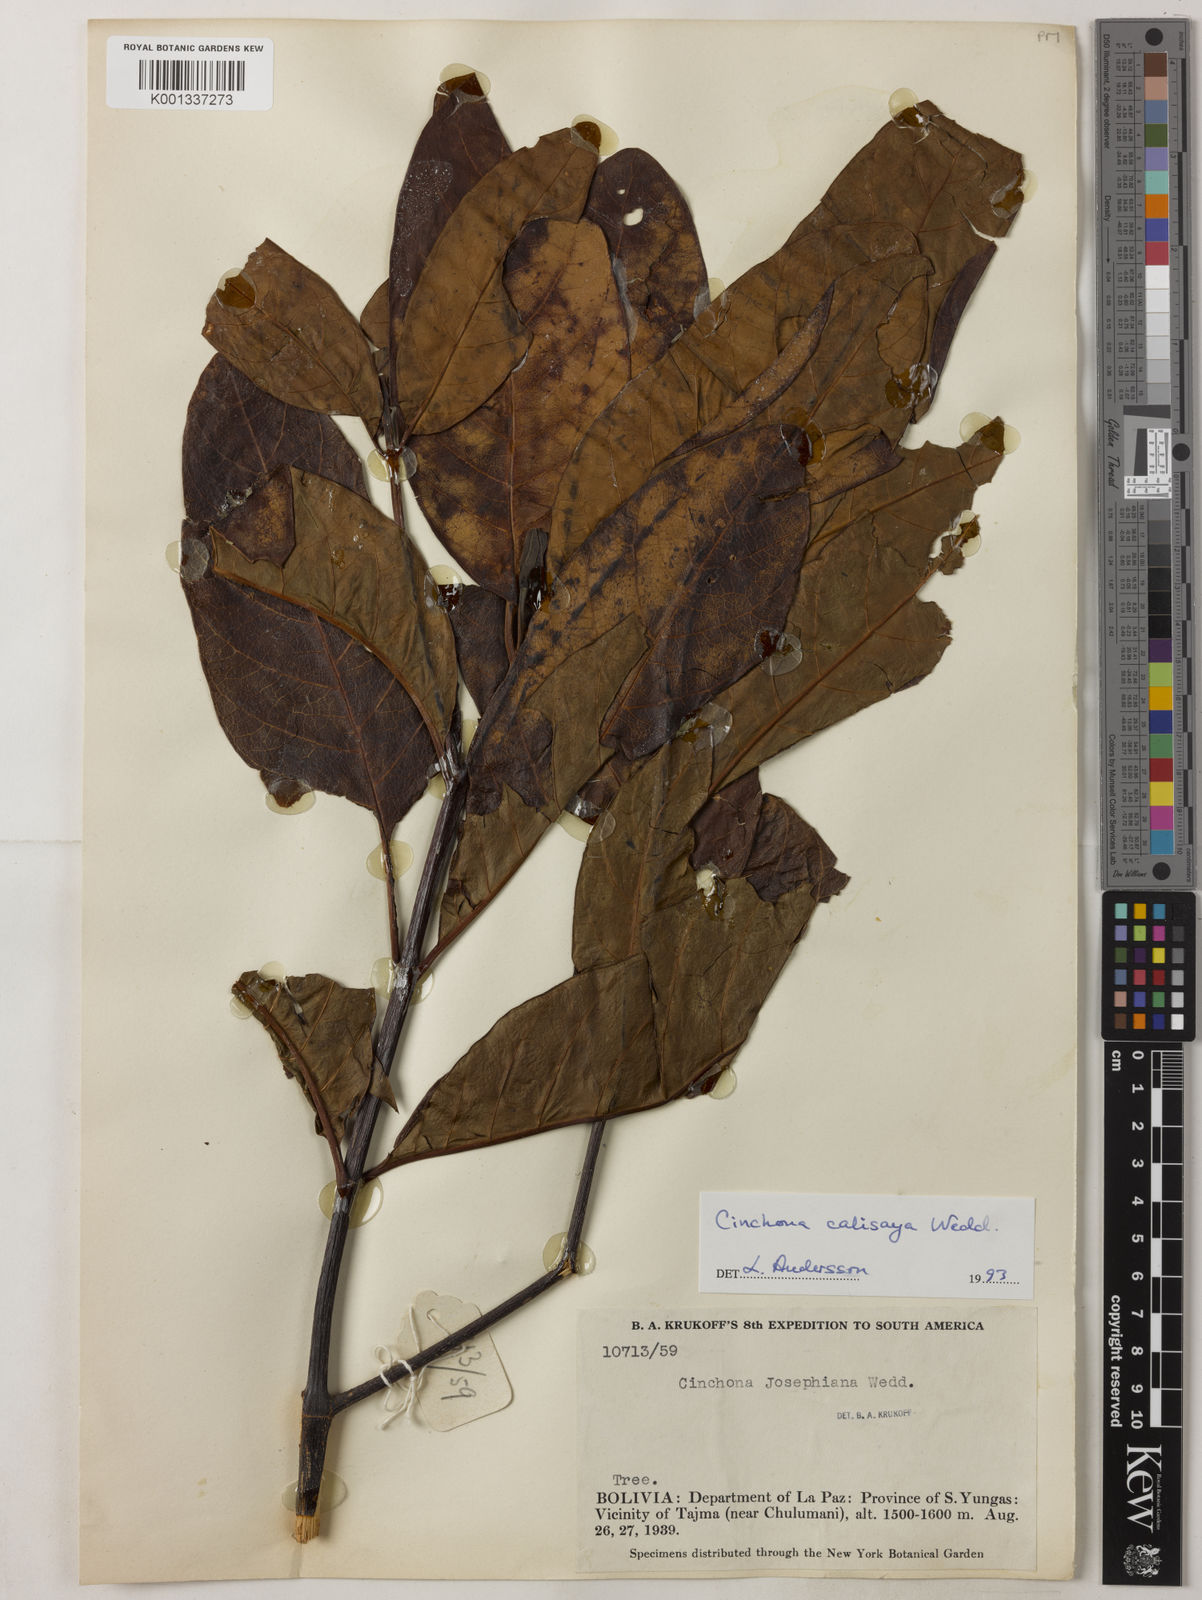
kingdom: Plantae
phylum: Tracheophyta
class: Magnoliopsida
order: Gentianales
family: Rubiaceae
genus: Cinchona
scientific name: Cinchona calisaya
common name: Ledgerbark
